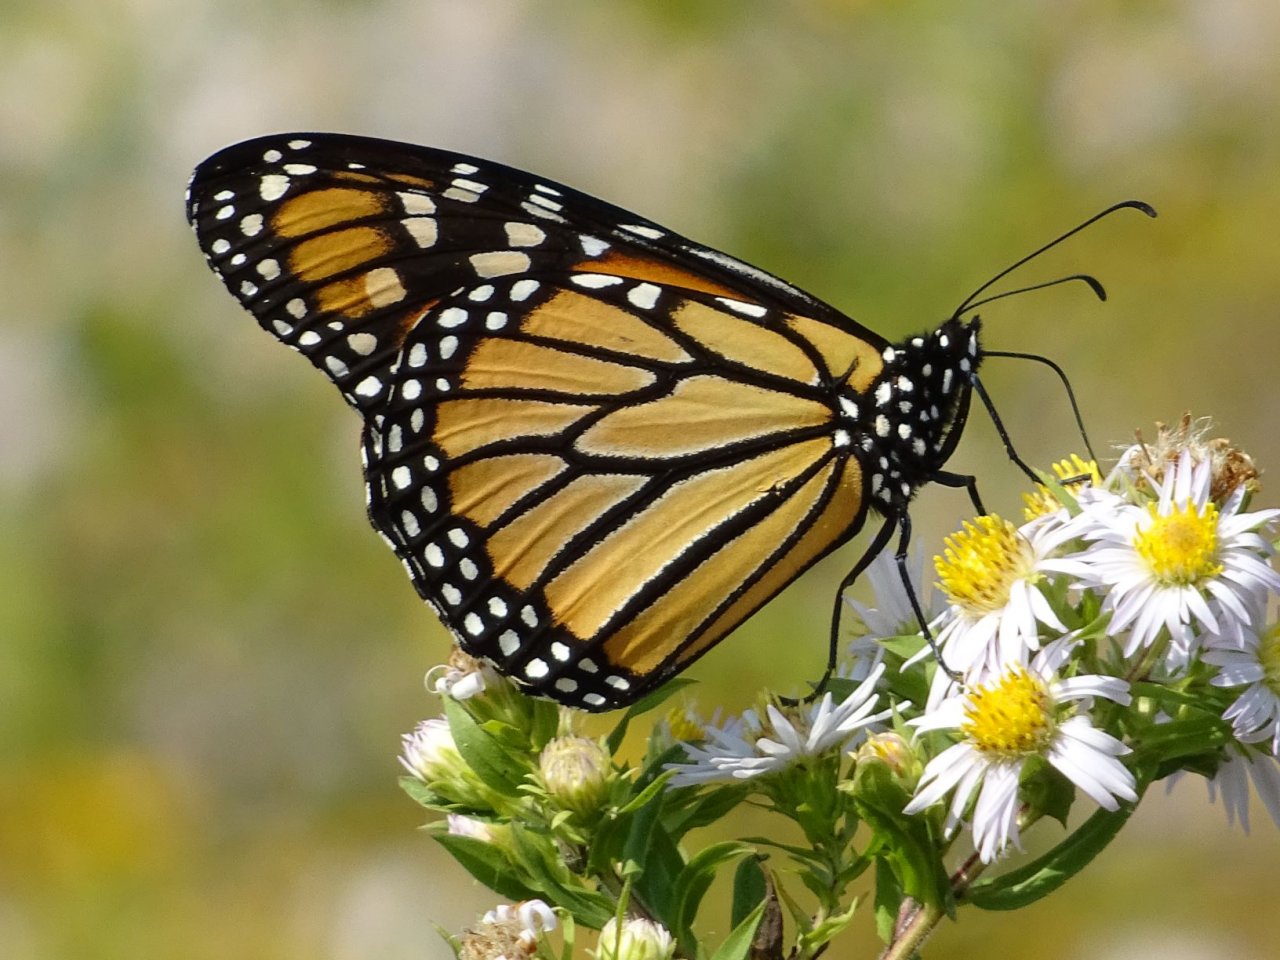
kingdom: Animalia
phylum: Arthropoda
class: Insecta
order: Lepidoptera
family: Nymphalidae
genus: Danaus
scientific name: Danaus plexippus
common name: Monarch
